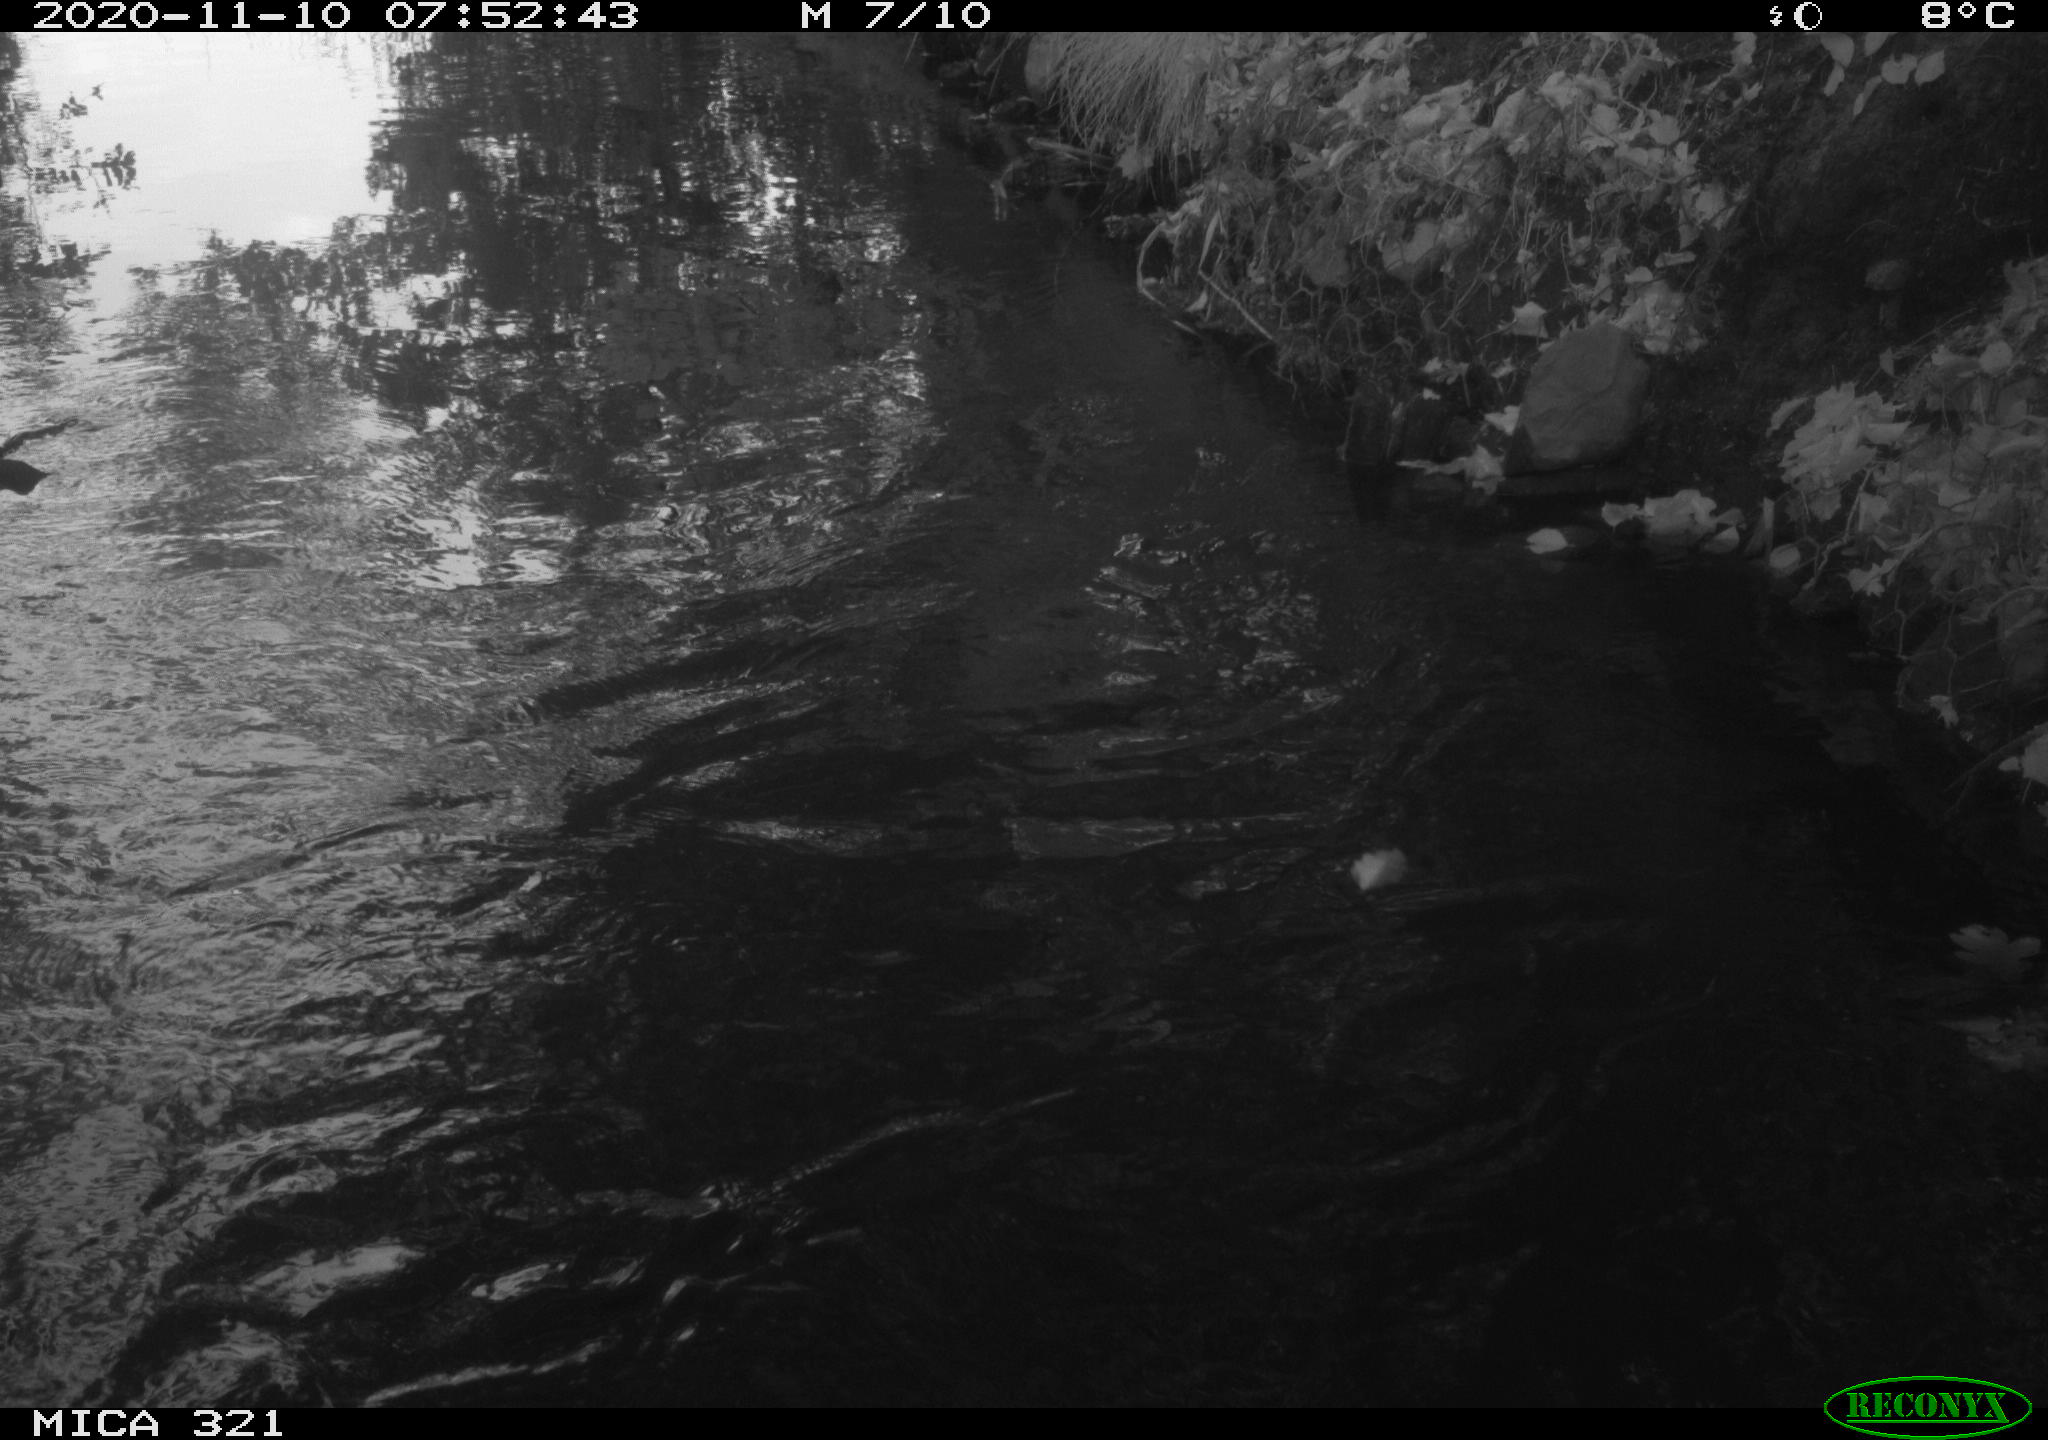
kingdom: Animalia
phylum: Chordata
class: Aves
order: Anseriformes
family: Anatidae
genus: Anas
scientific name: Anas platyrhynchos
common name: Mallard
